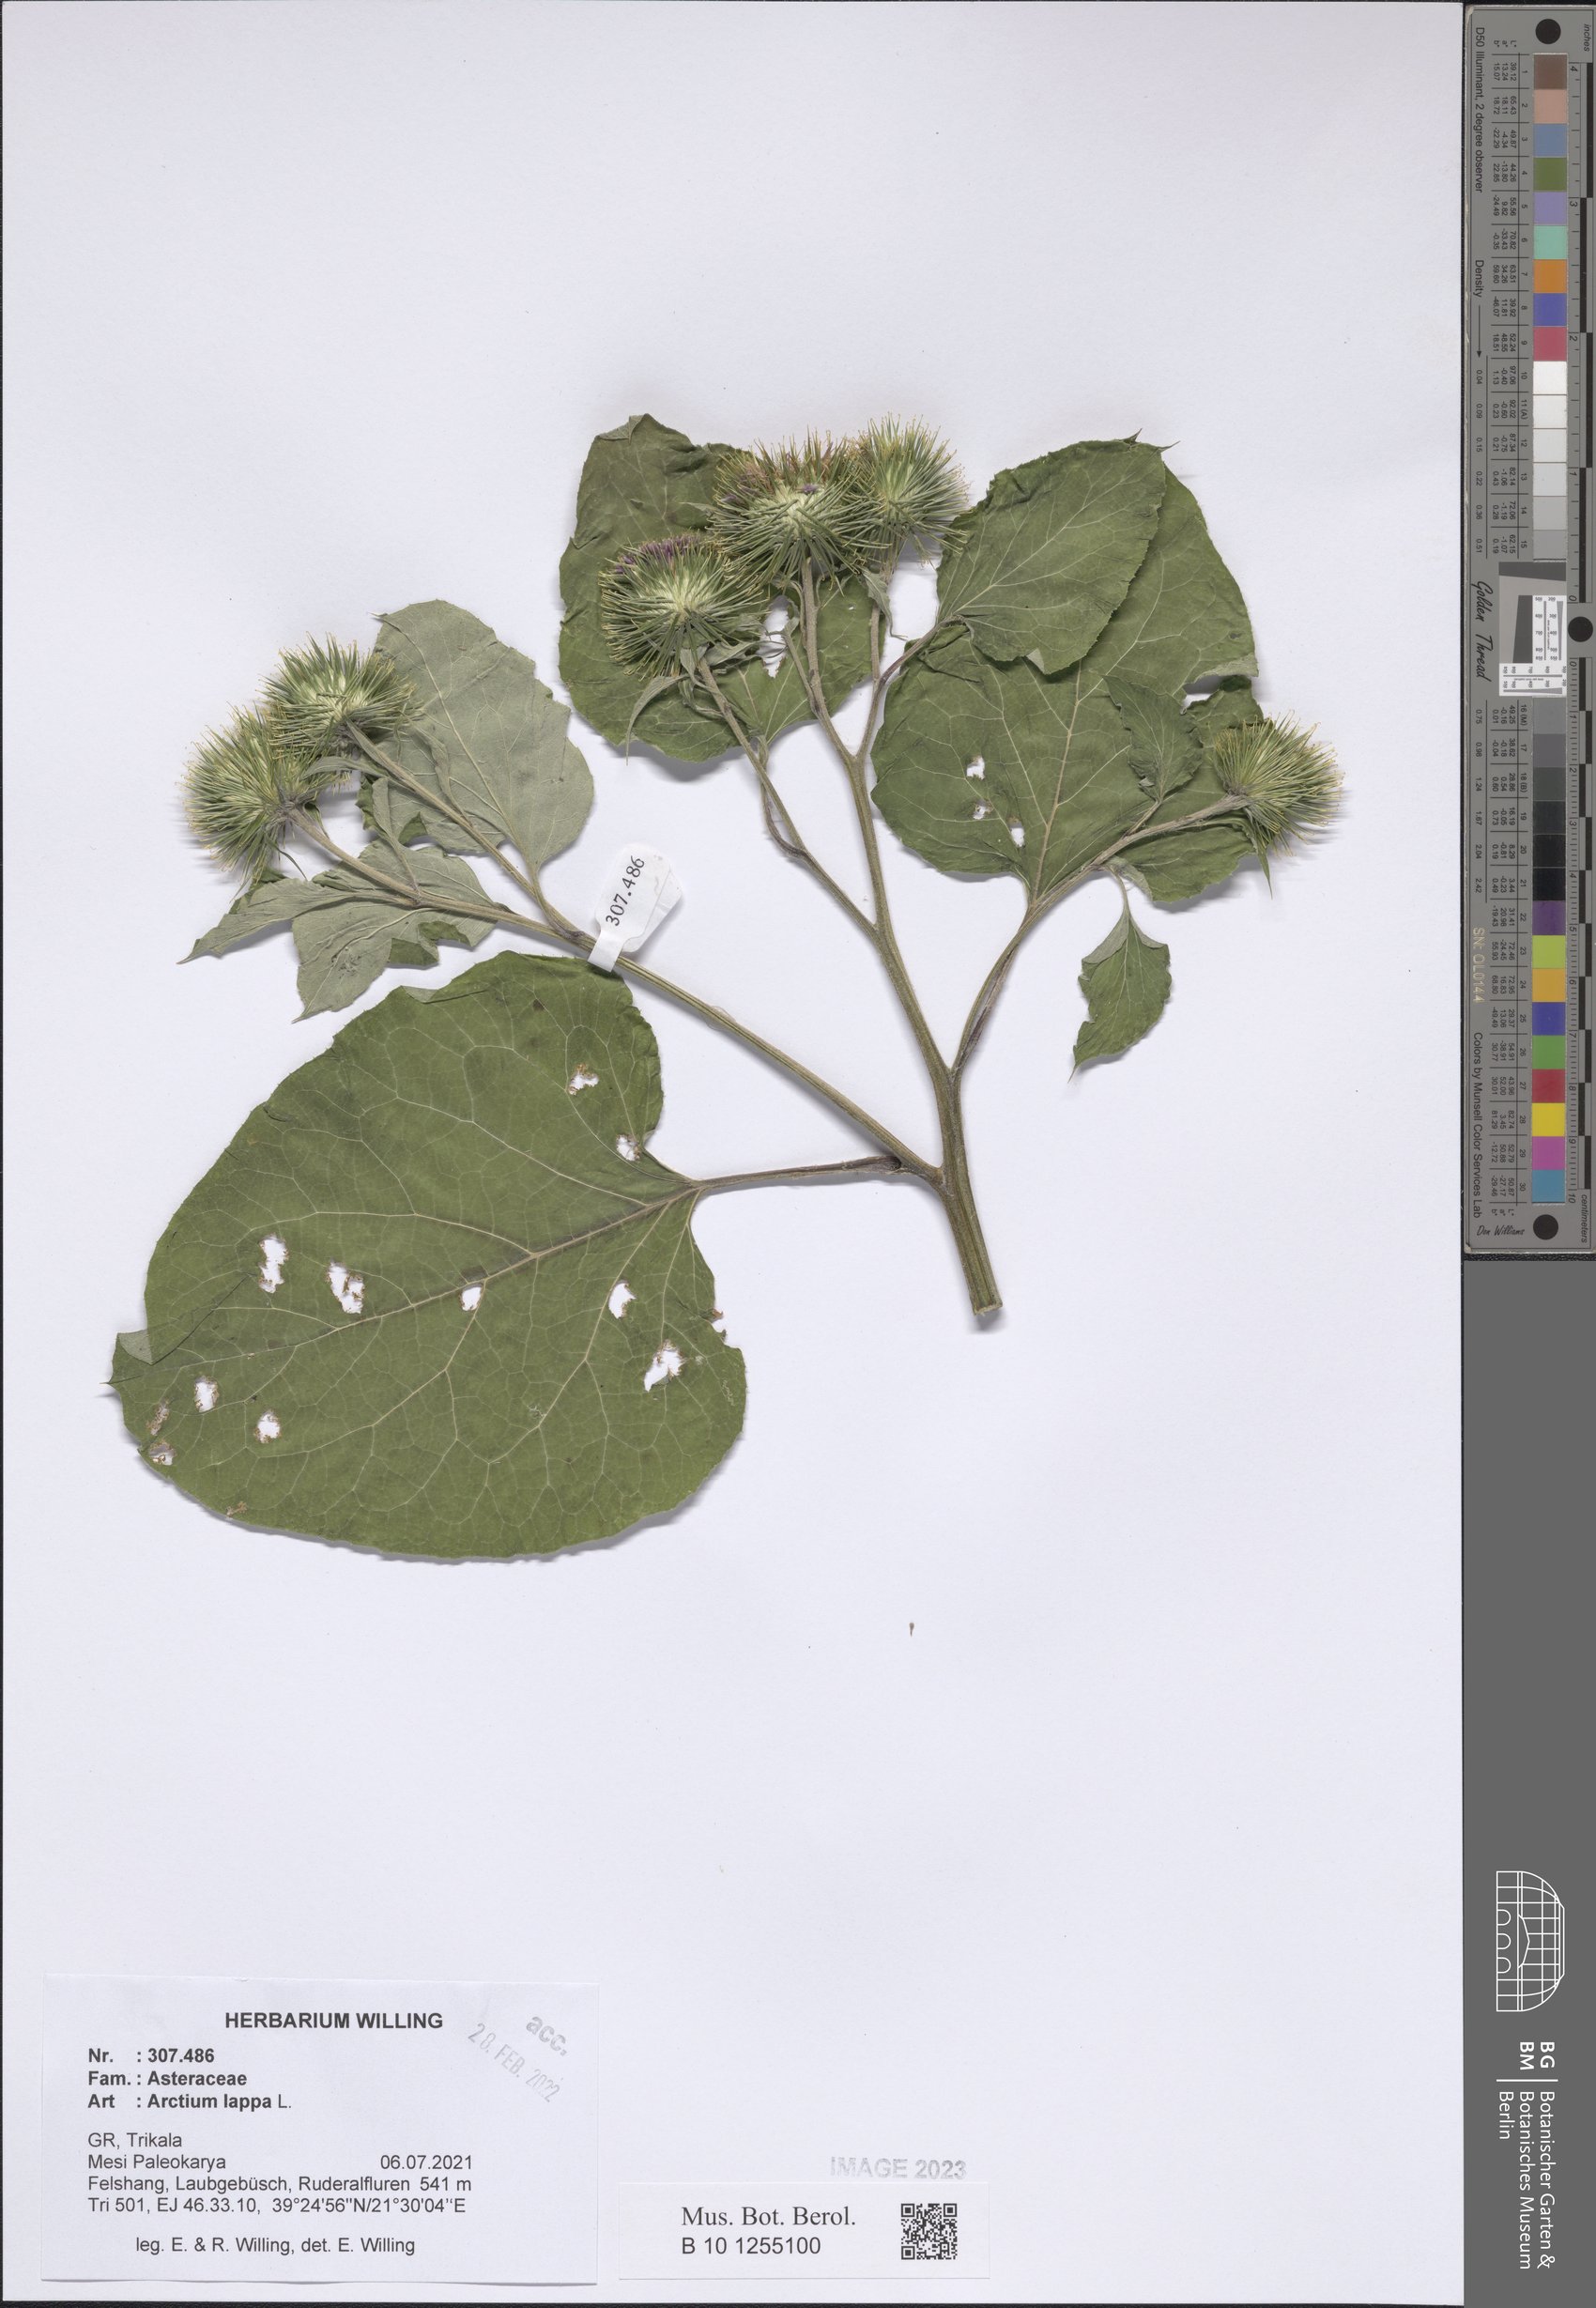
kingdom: Plantae
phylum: Tracheophyta
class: Magnoliopsida
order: Asterales
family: Asteraceae
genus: Arctium
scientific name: Arctium lappa
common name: Greater burdock
